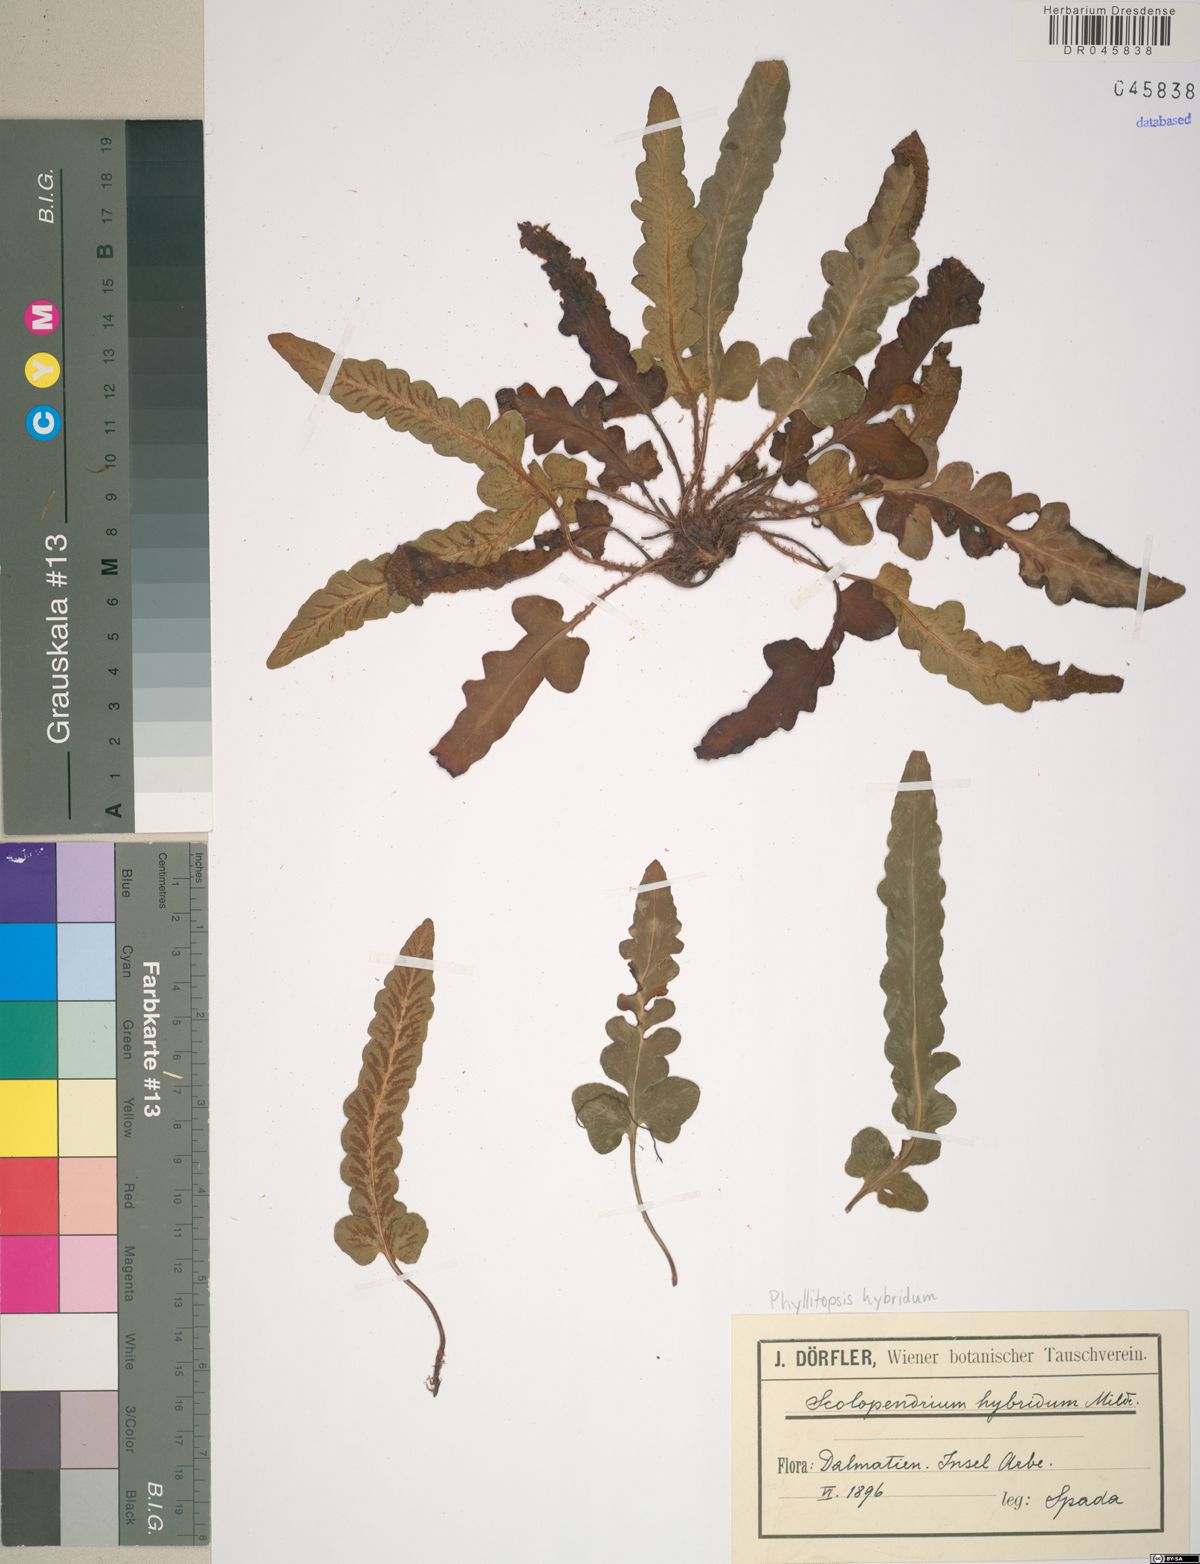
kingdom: Plantae
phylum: Tracheophyta
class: Polypodiopsida
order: Polypodiales
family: Aspleniaceae
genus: Asplenium
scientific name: Asplenium hybridum
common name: Dalmatian spleenwort
